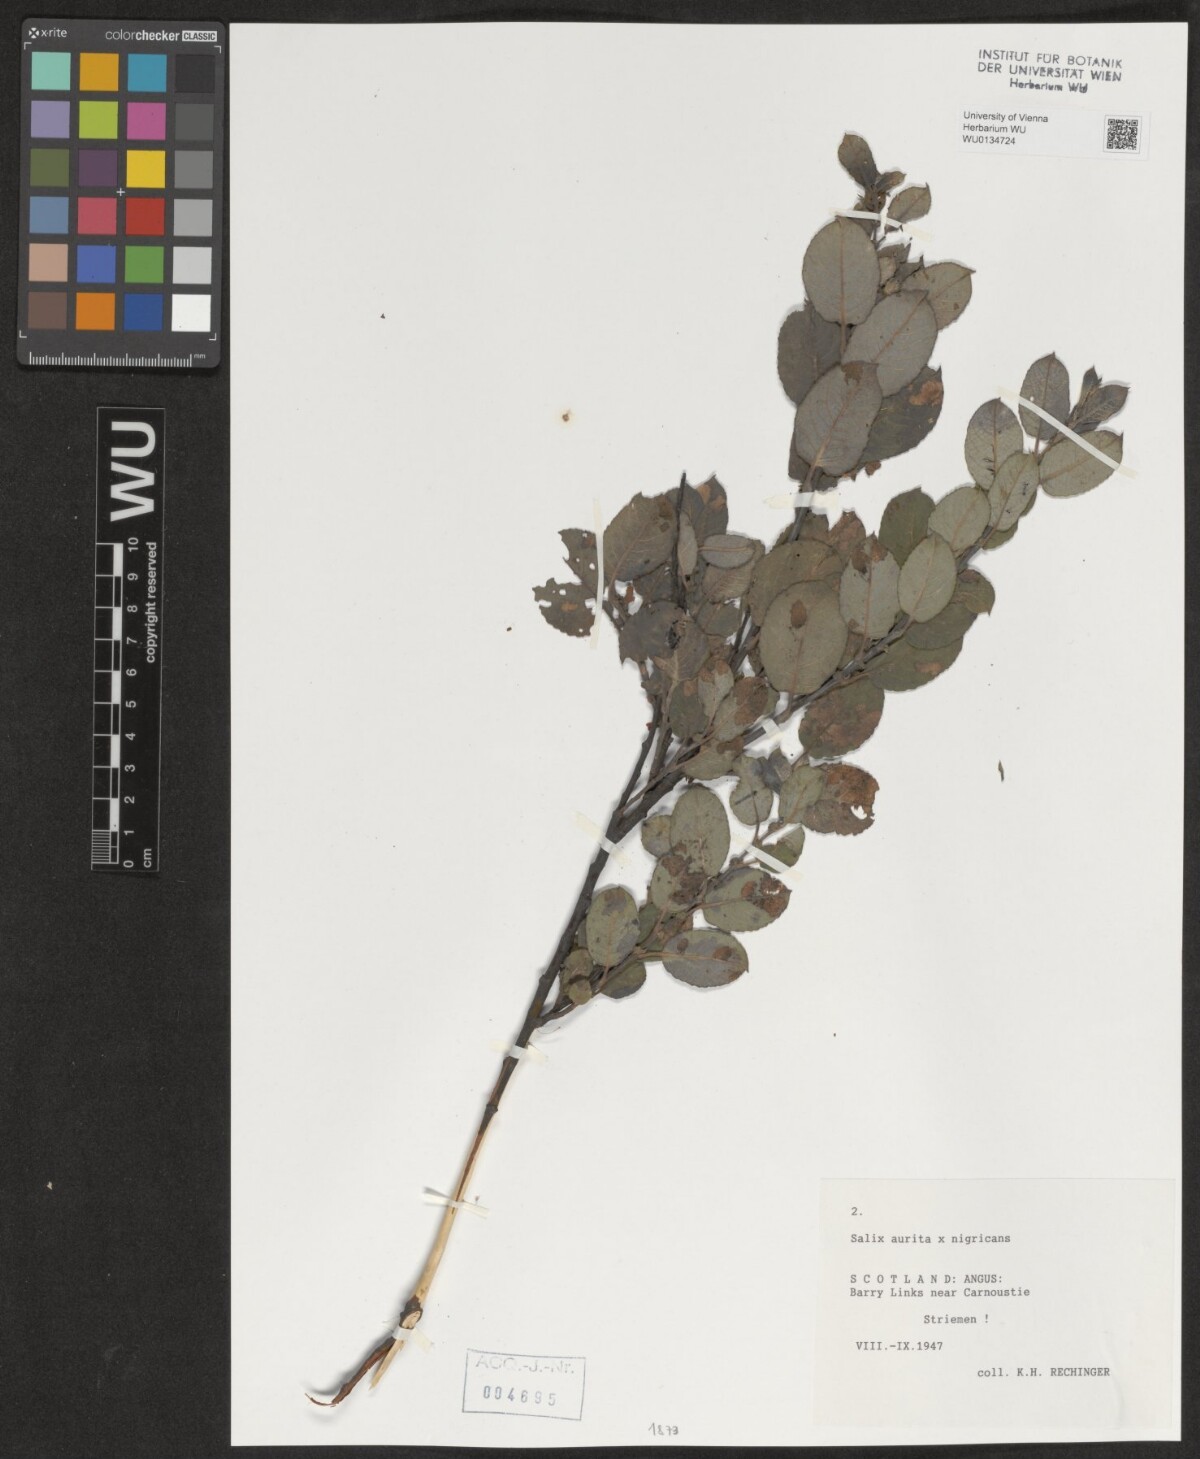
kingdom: Plantae
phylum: Tracheophyta
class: Magnoliopsida
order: Malpighiales
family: Salicaceae
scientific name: Salicaceae
